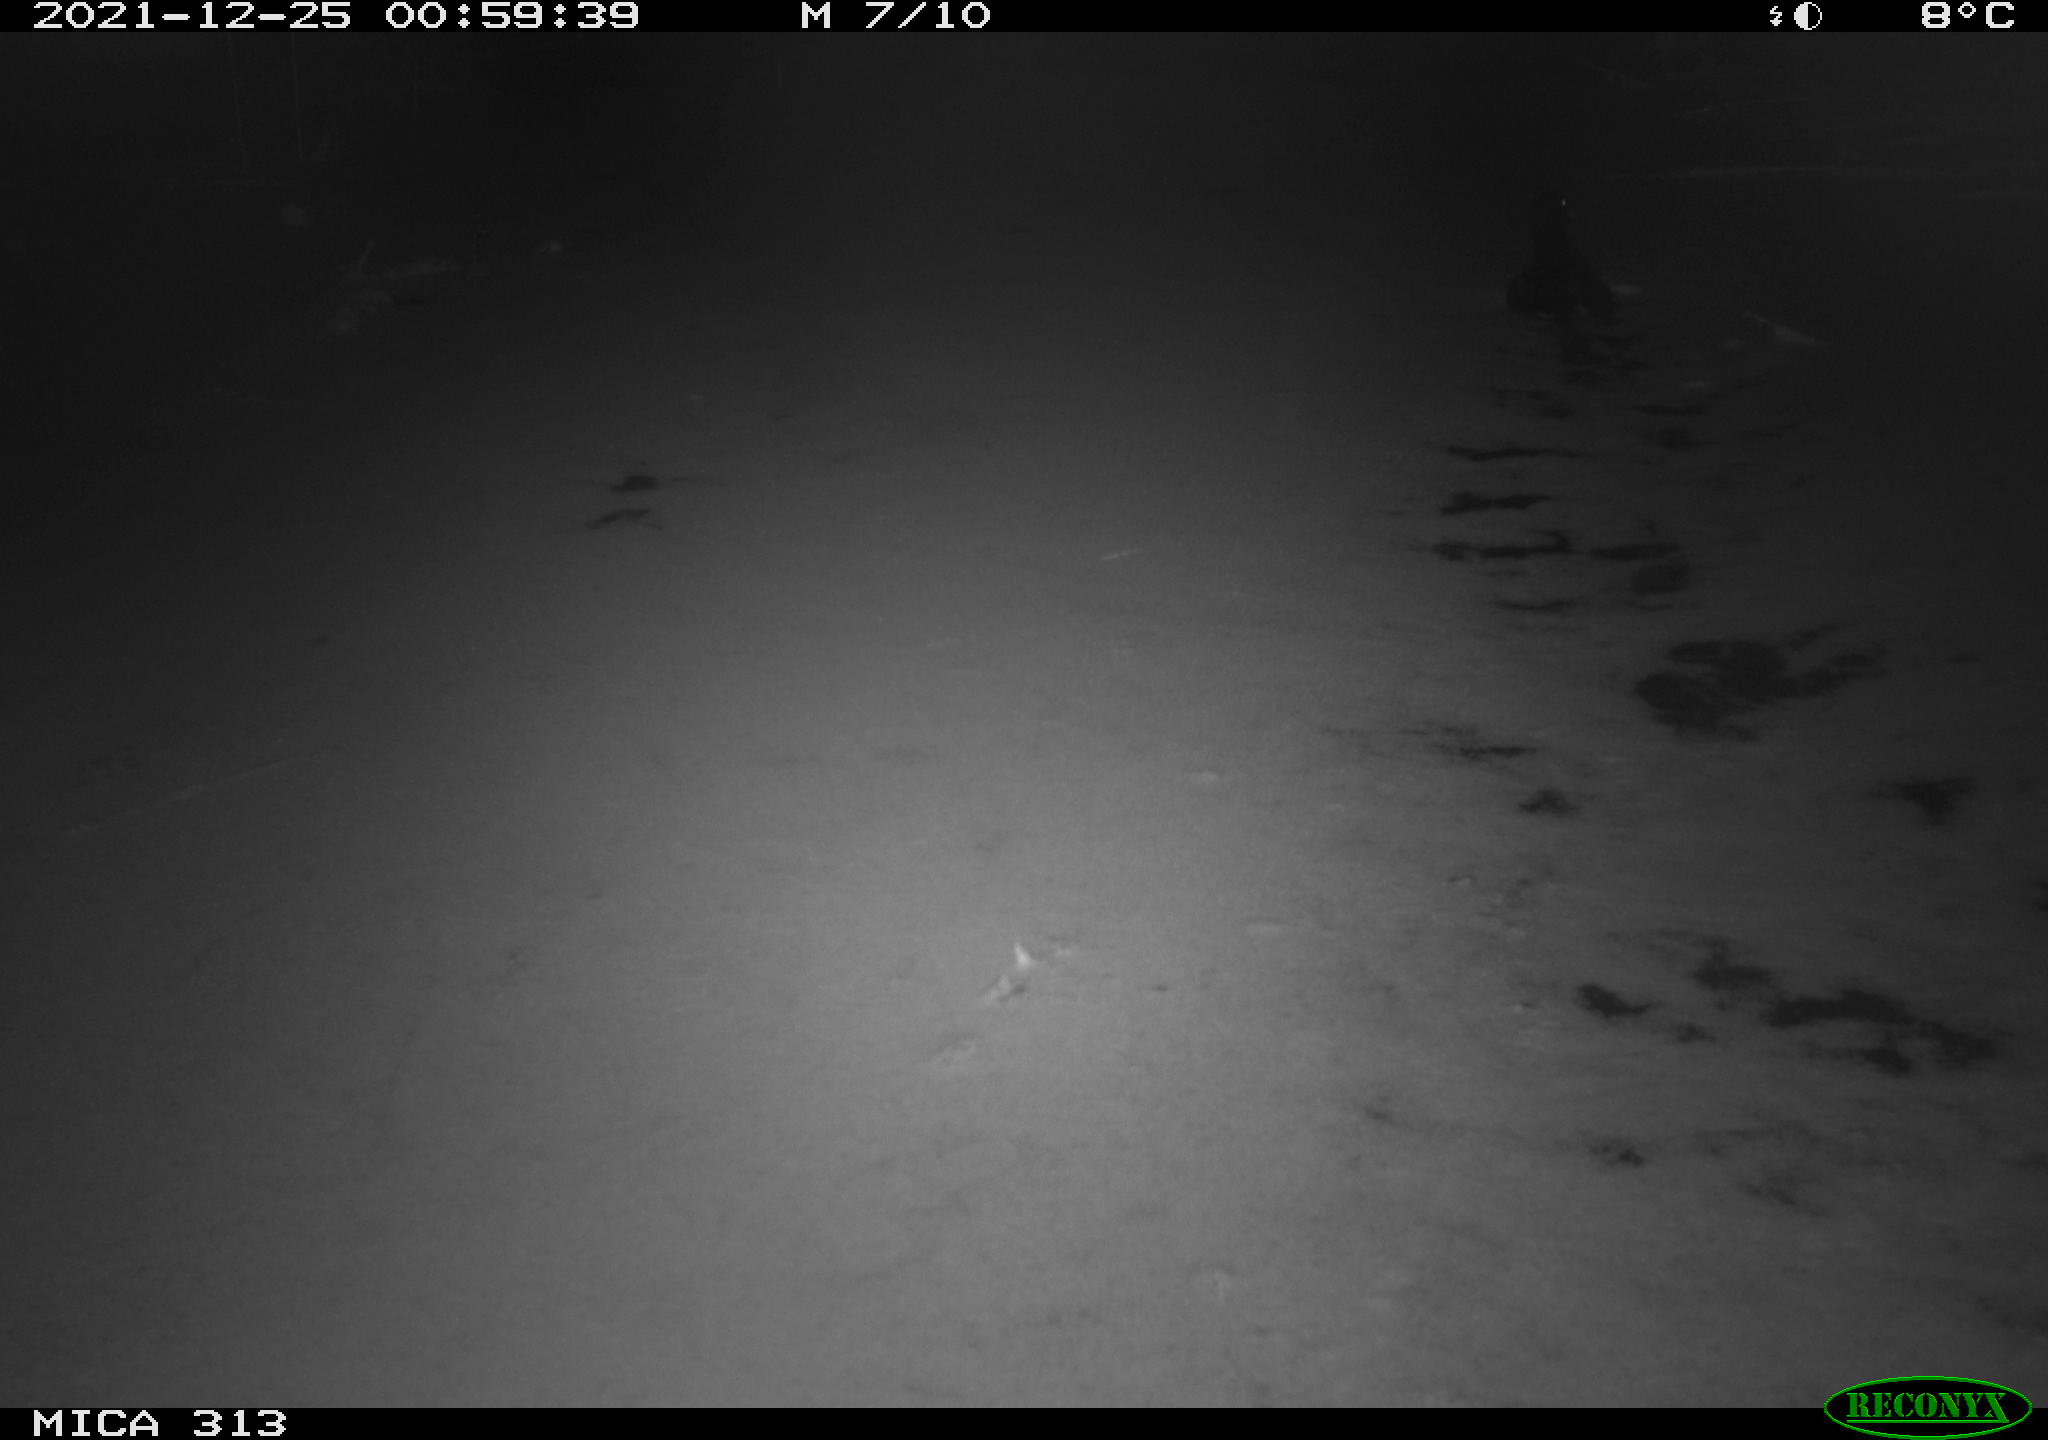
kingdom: Animalia
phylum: Chordata
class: Aves
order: Gruiformes
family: Rallidae
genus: Gallinula
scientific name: Gallinula chloropus
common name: Common moorhen
